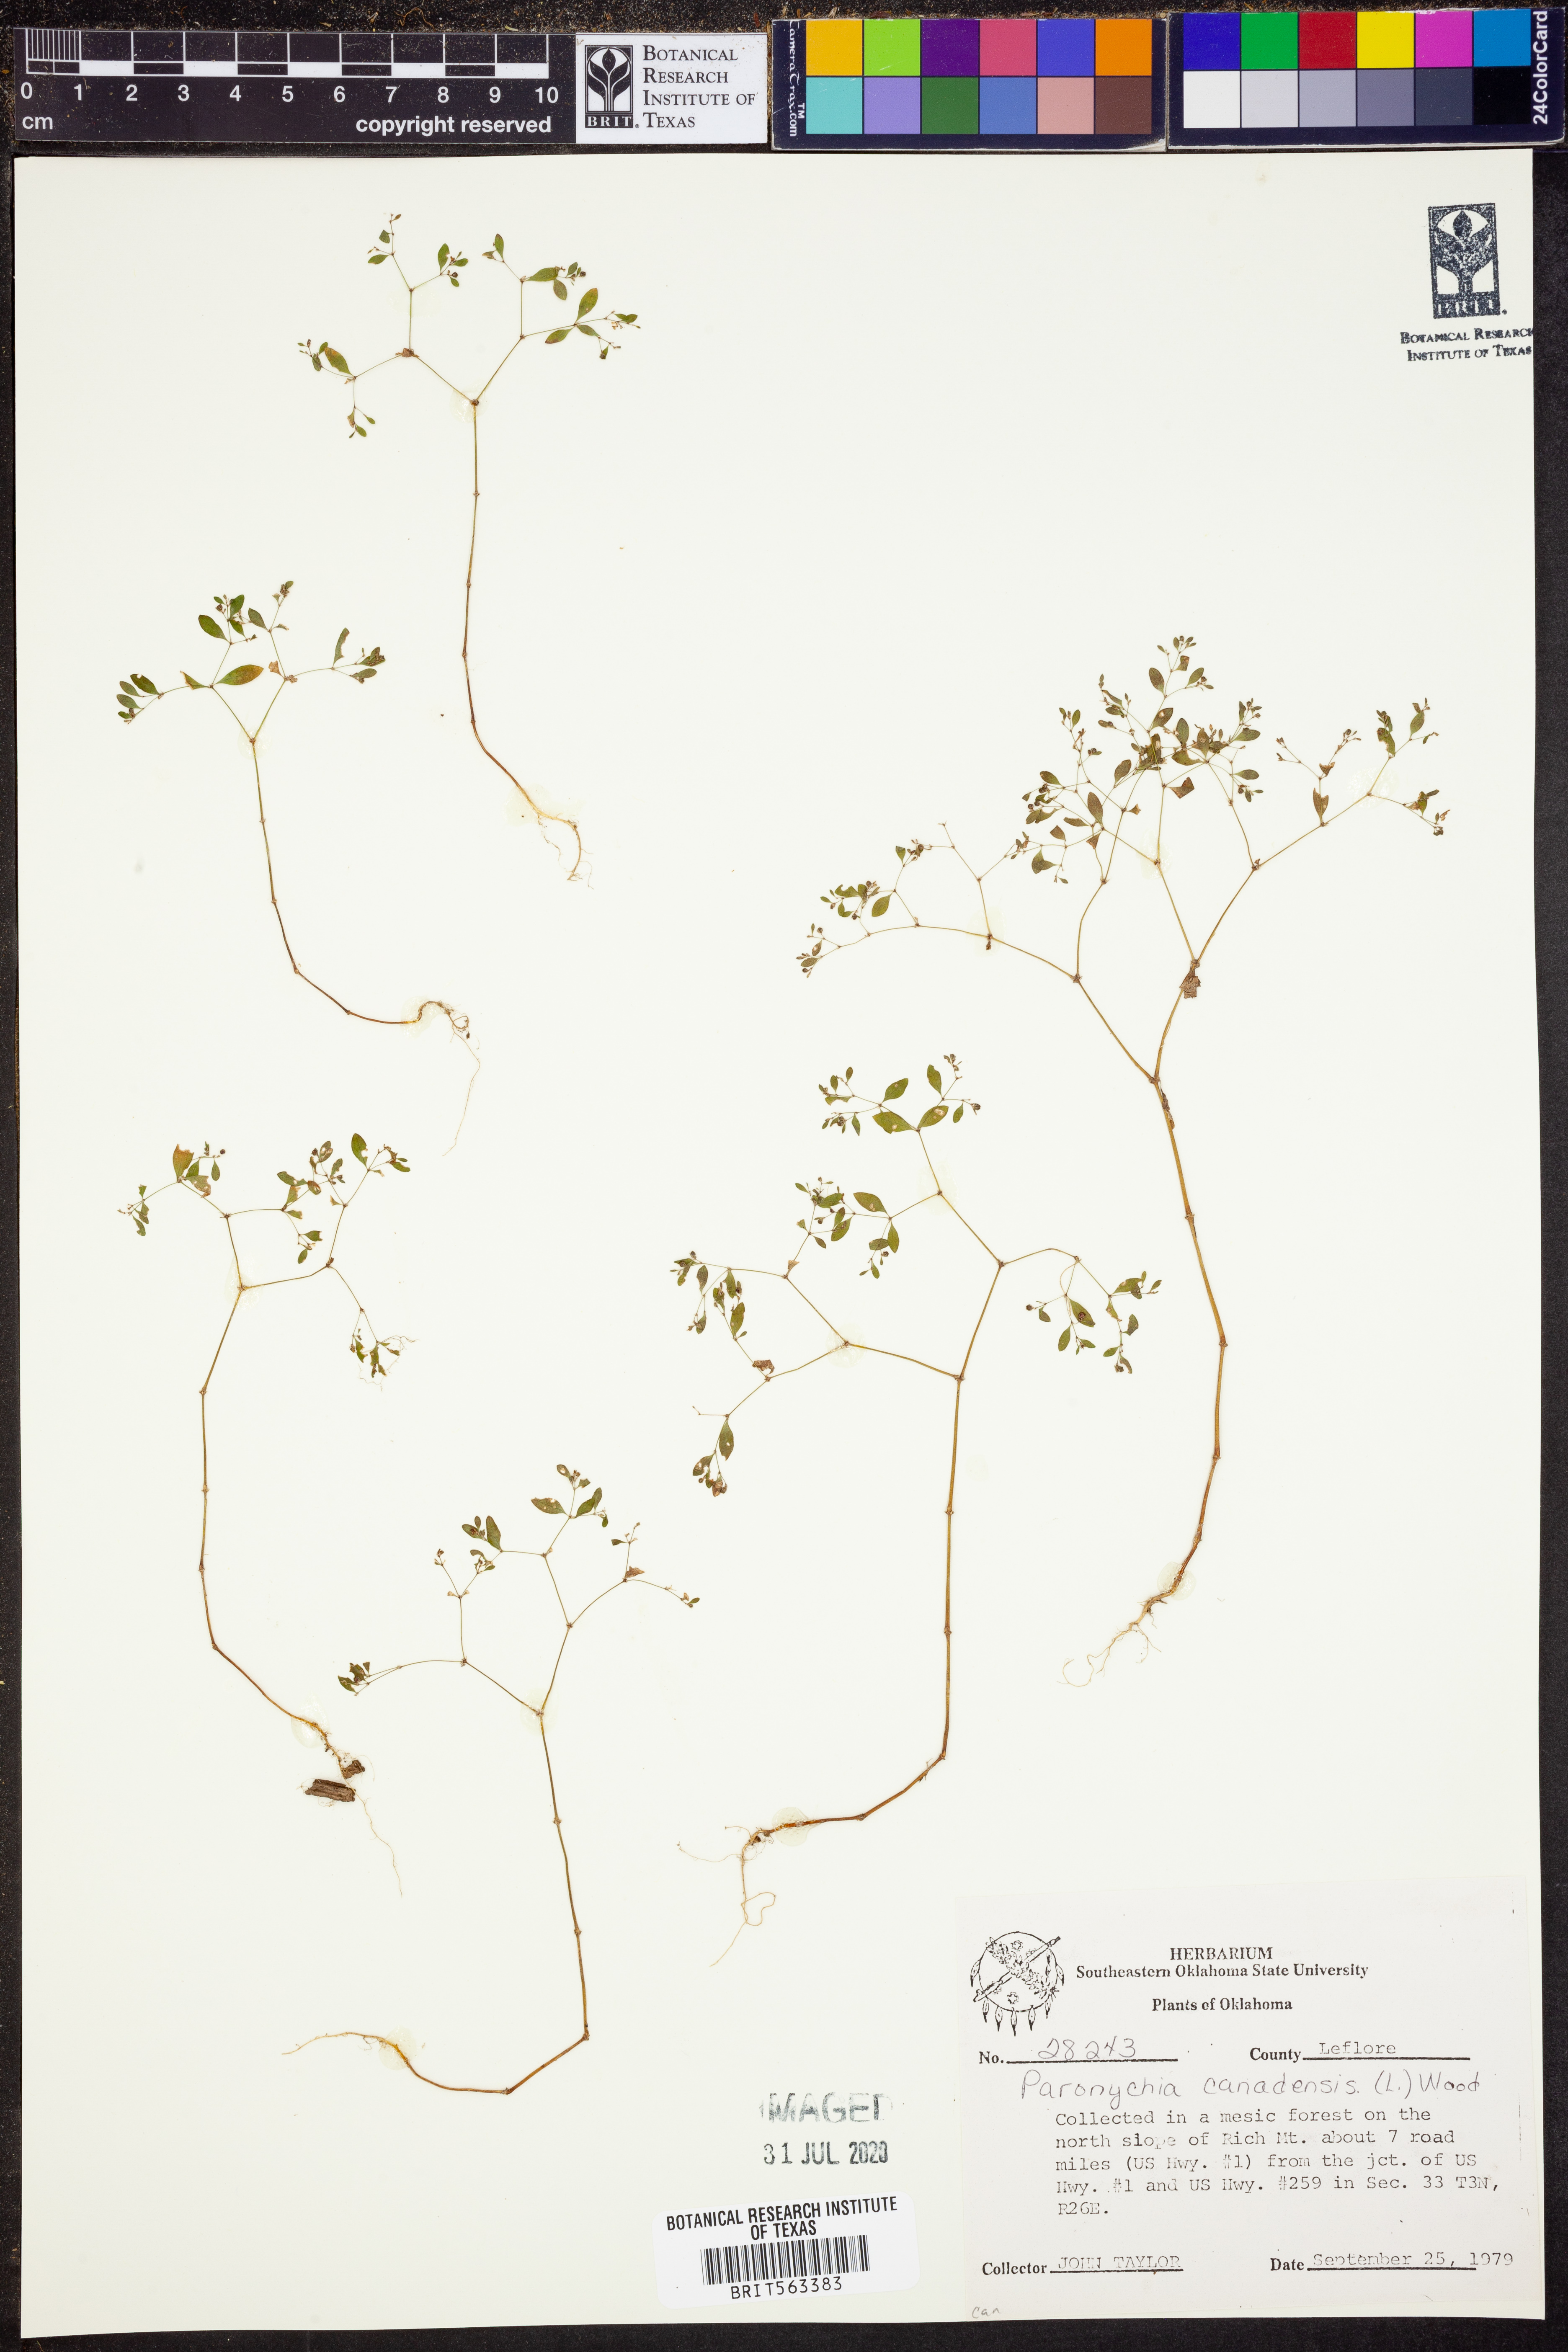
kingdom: Plantae
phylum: Tracheophyta
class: Magnoliopsida
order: Caryophyllales
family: Caryophyllaceae
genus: Paronychia
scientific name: Paronychia canadensis
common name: Canada forked nailwort
